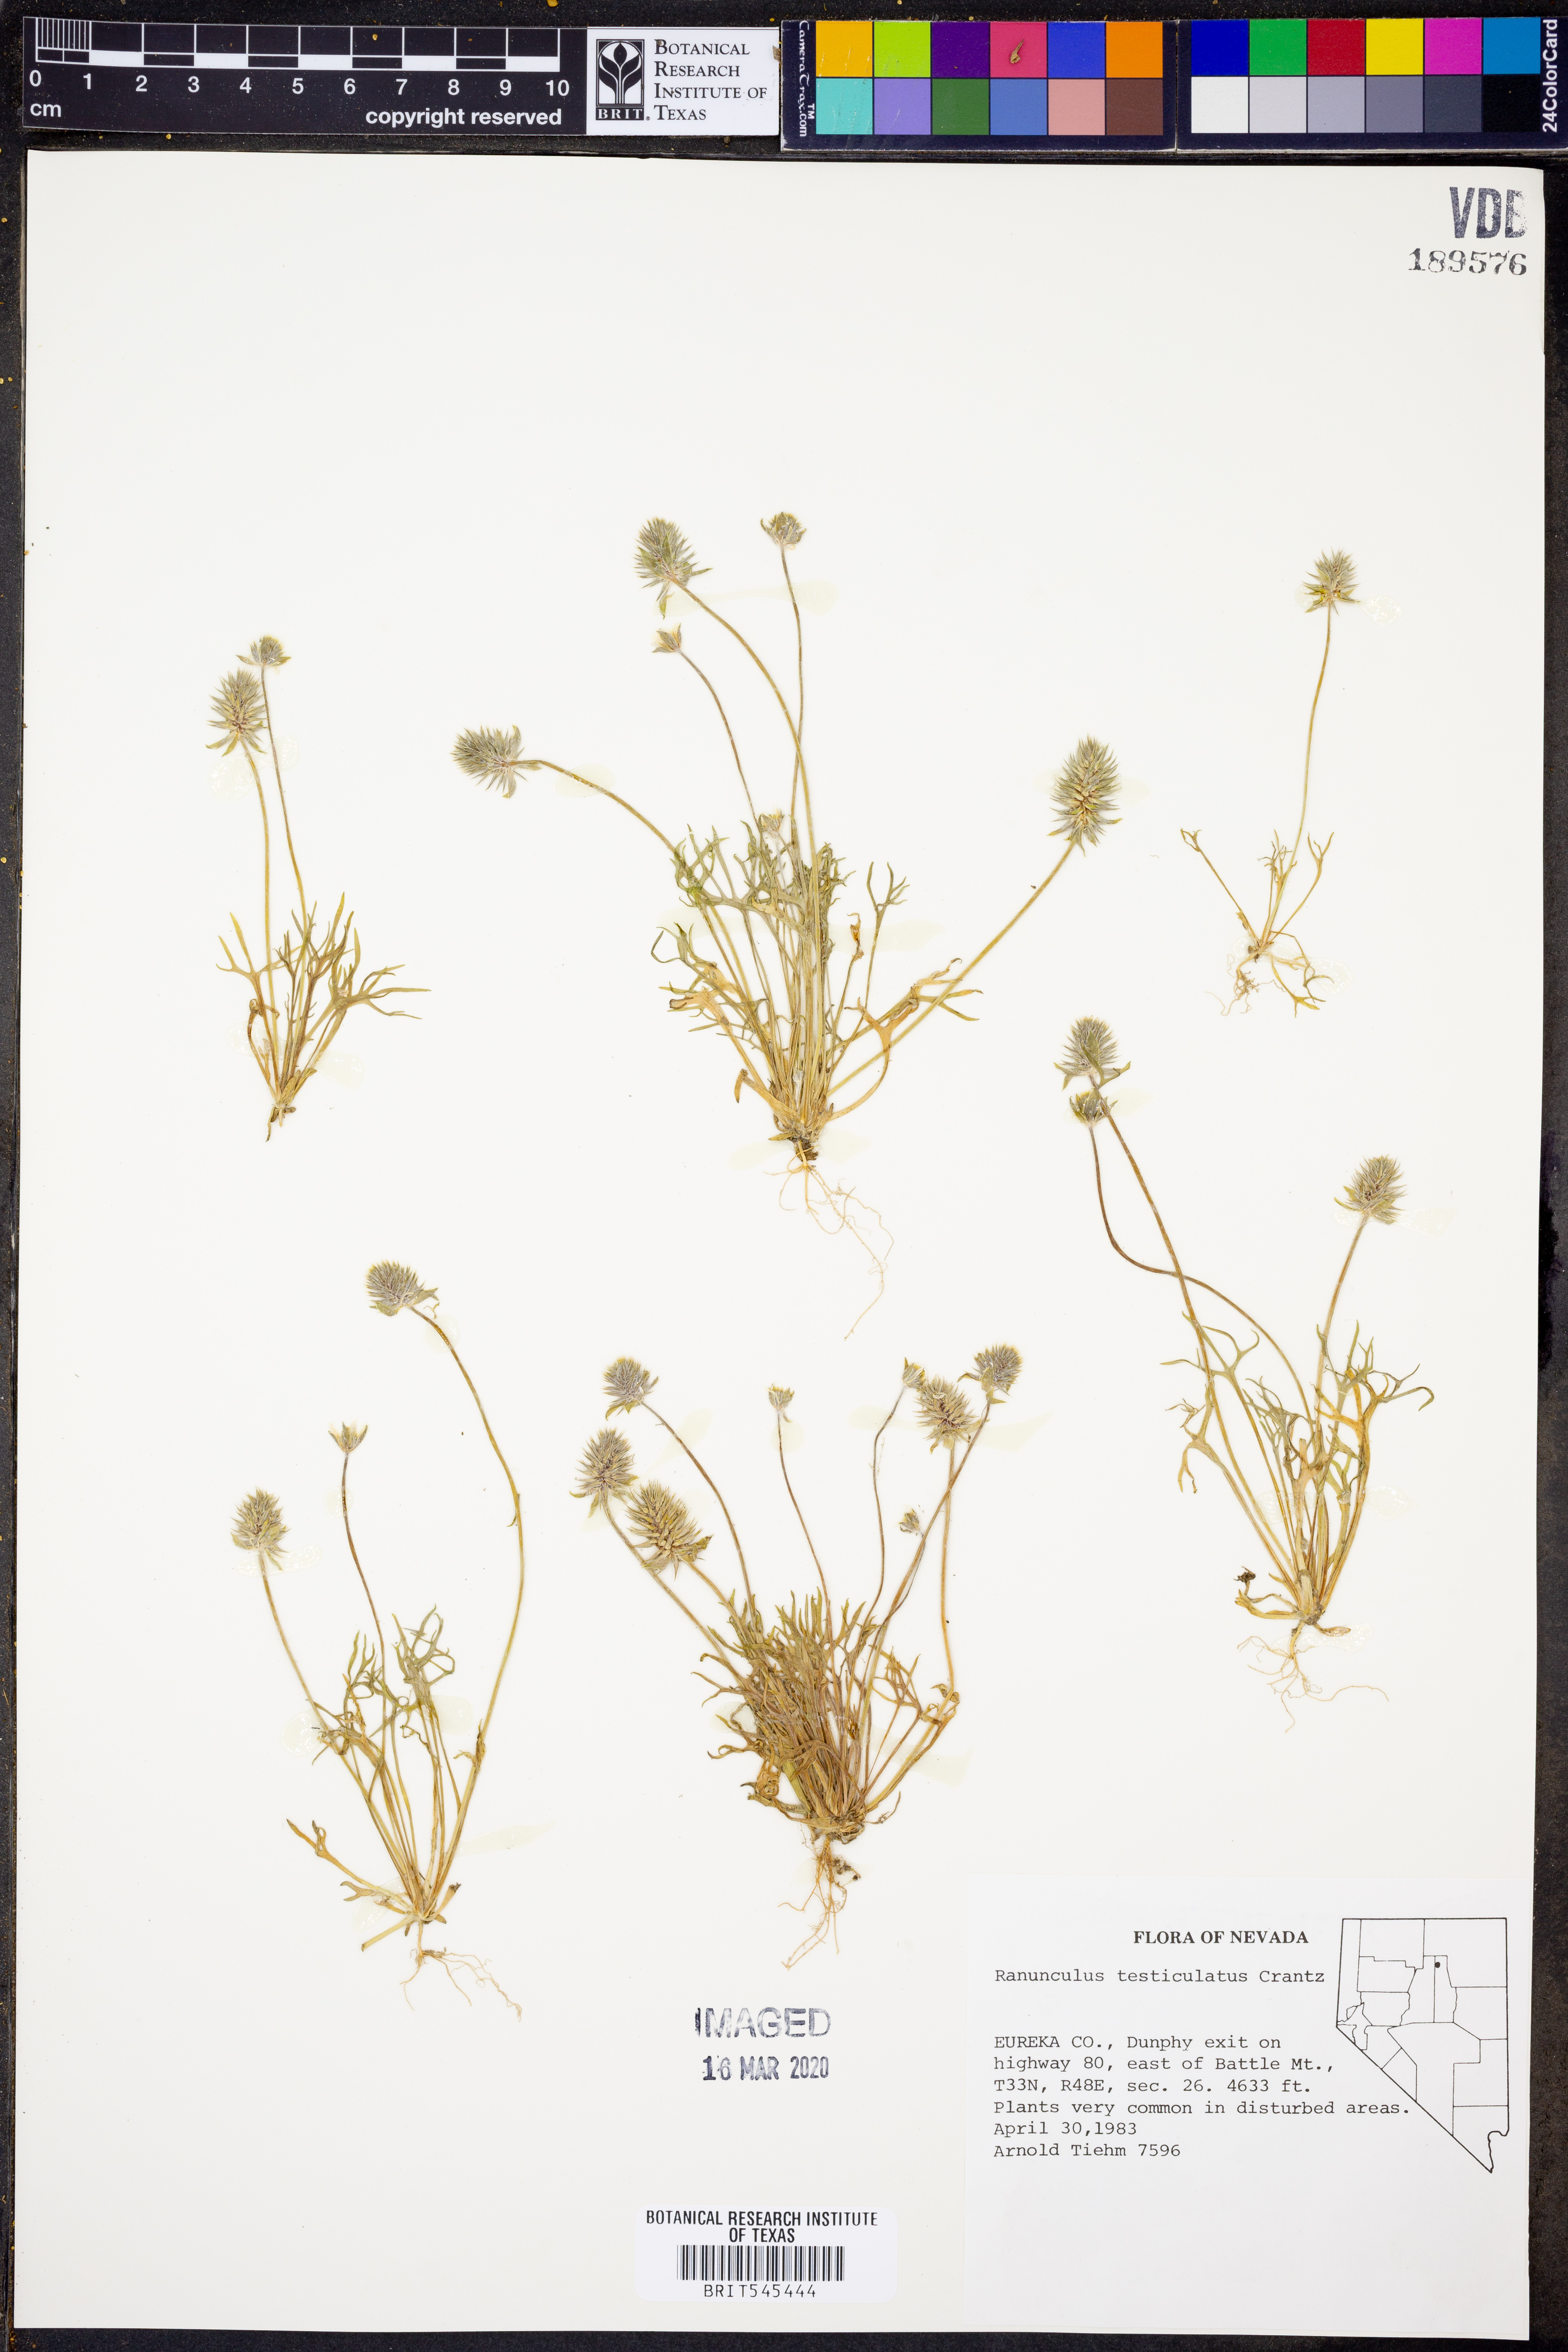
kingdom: Plantae
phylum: Tracheophyta
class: Magnoliopsida
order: Ranunculales
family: Ranunculaceae
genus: Ceratocephala
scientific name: Ceratocephala orthoceras
